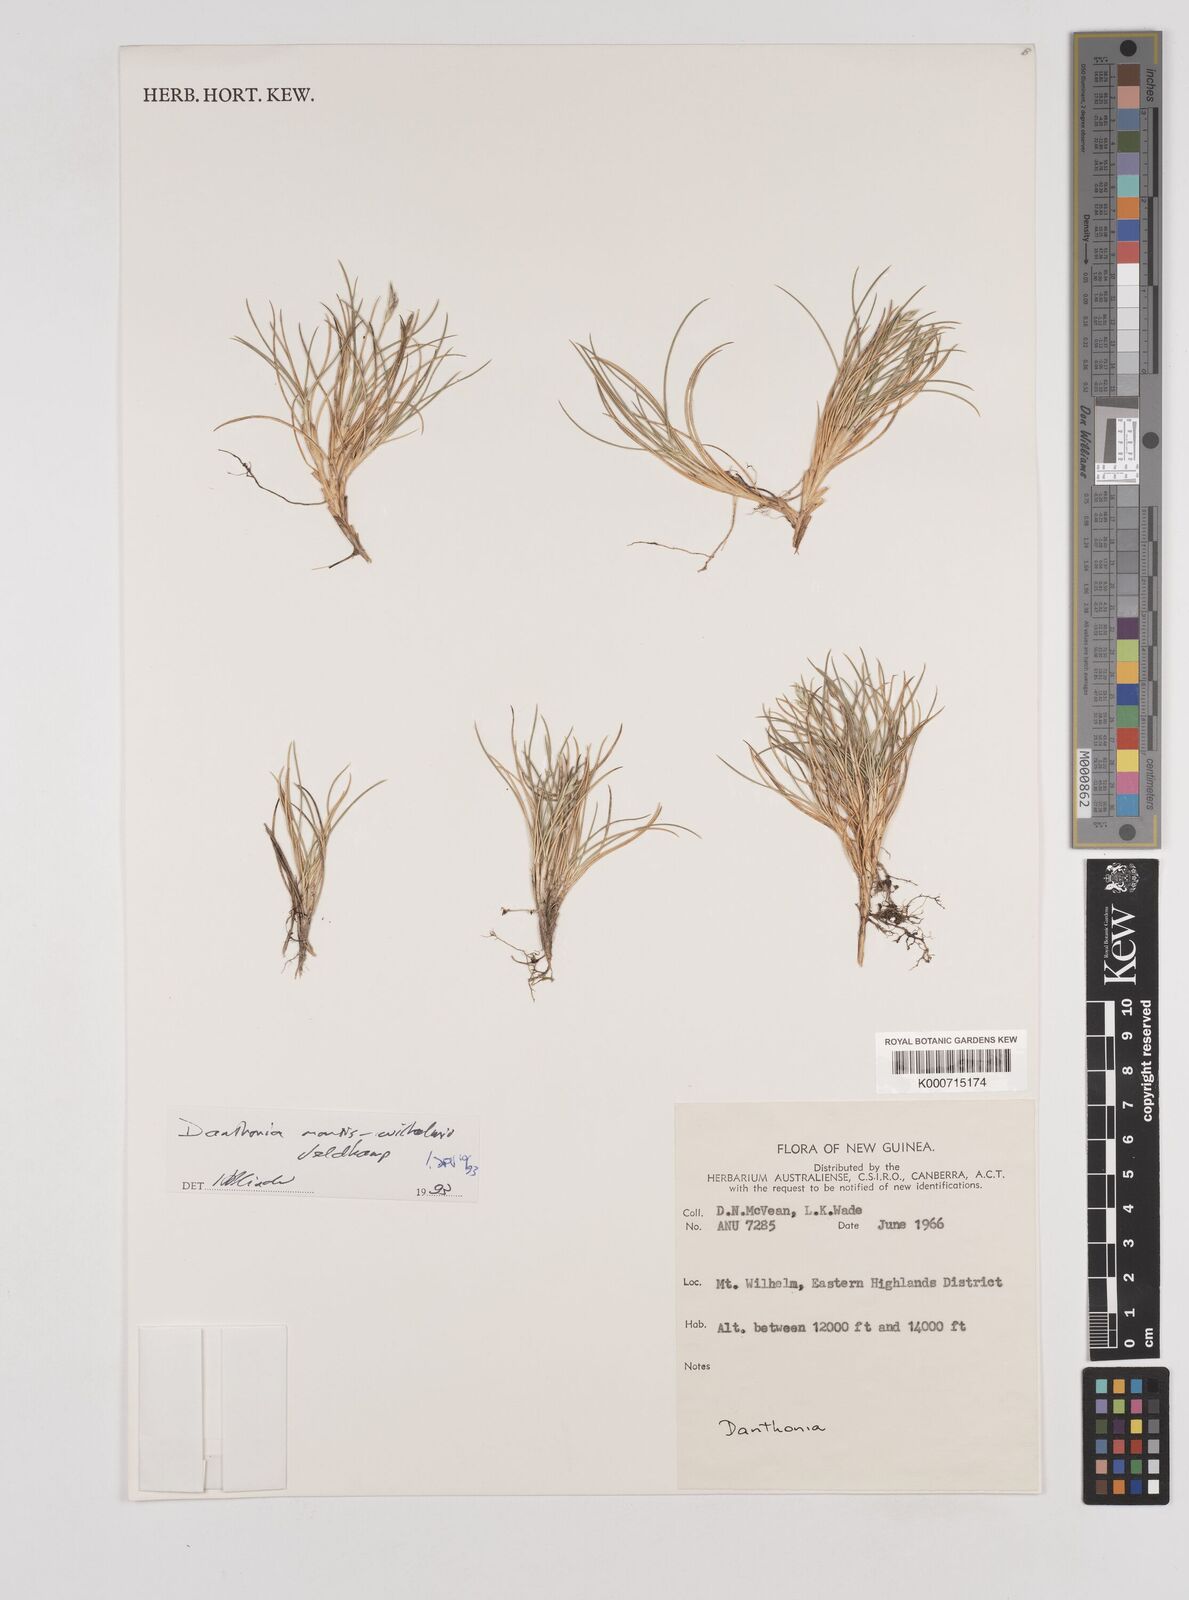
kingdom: Plantae
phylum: Tracheophyta
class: Liliopsida
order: Poales
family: Poaceae
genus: Rytidosperma
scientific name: Rytidosperma montis-wilhelmi
